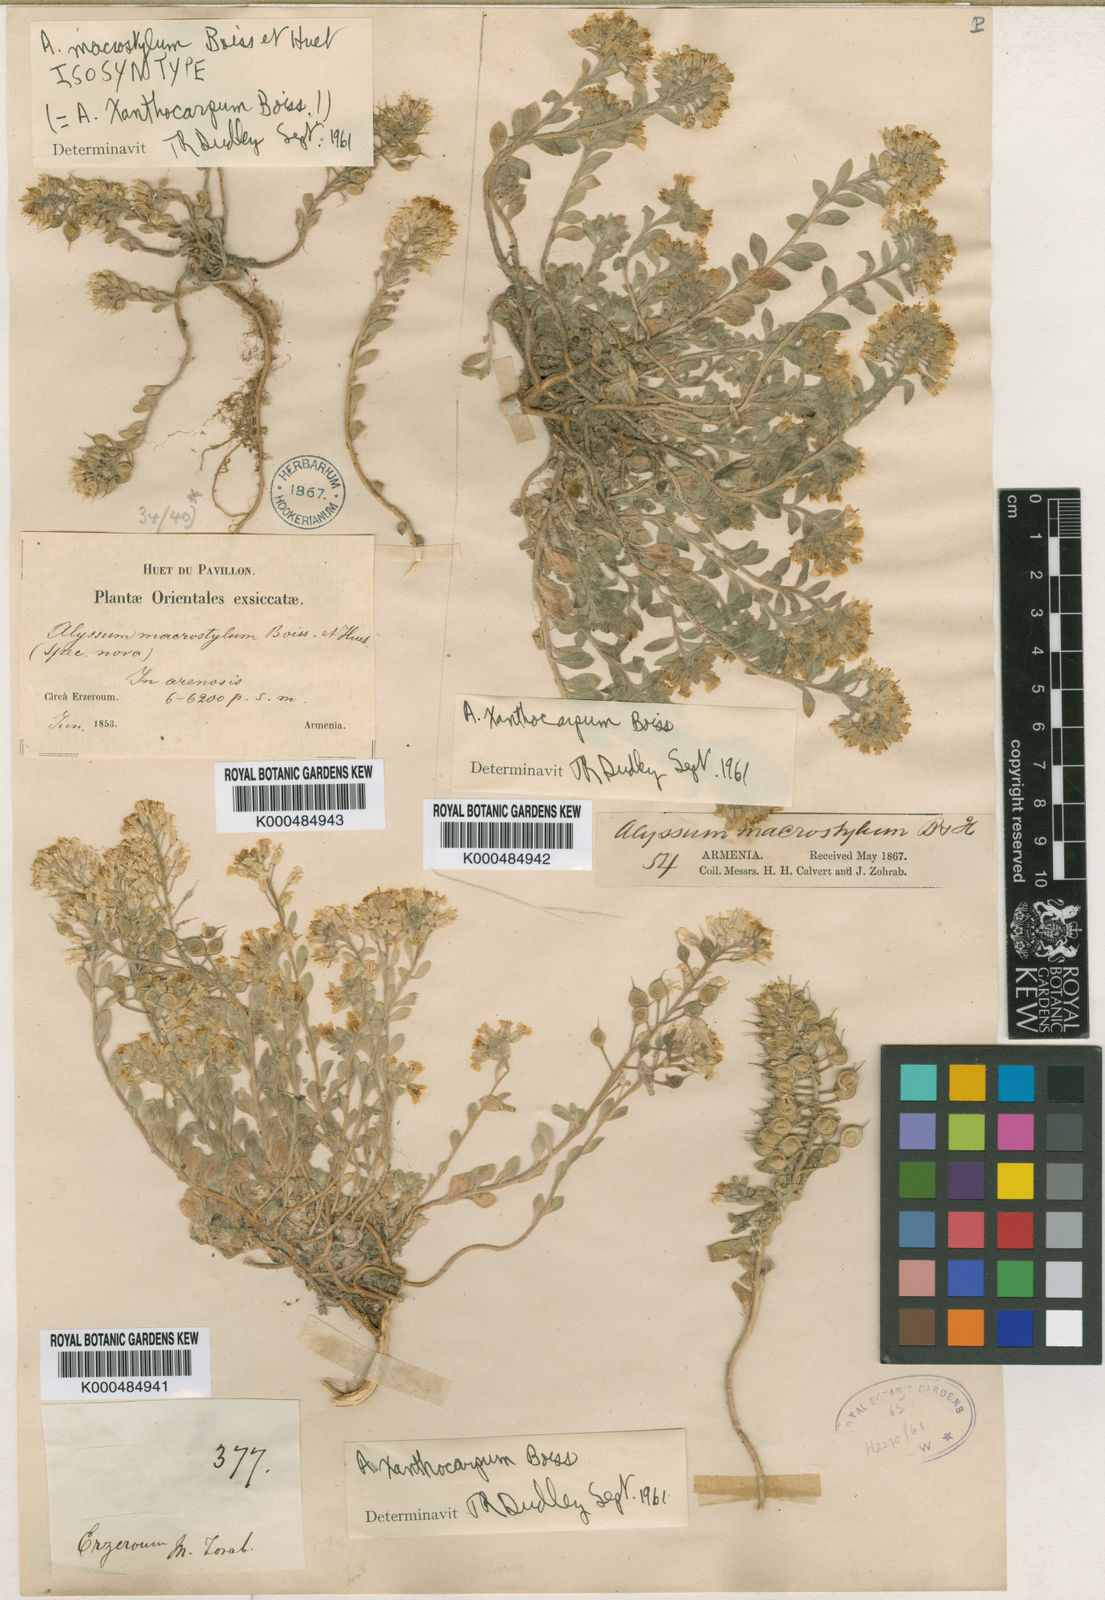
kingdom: Plantae
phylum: Tracheophyta
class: Magnoliopsida
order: Brassicales
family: Brassicaceae
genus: Alyssum
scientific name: Alyssum xanthocarpum
